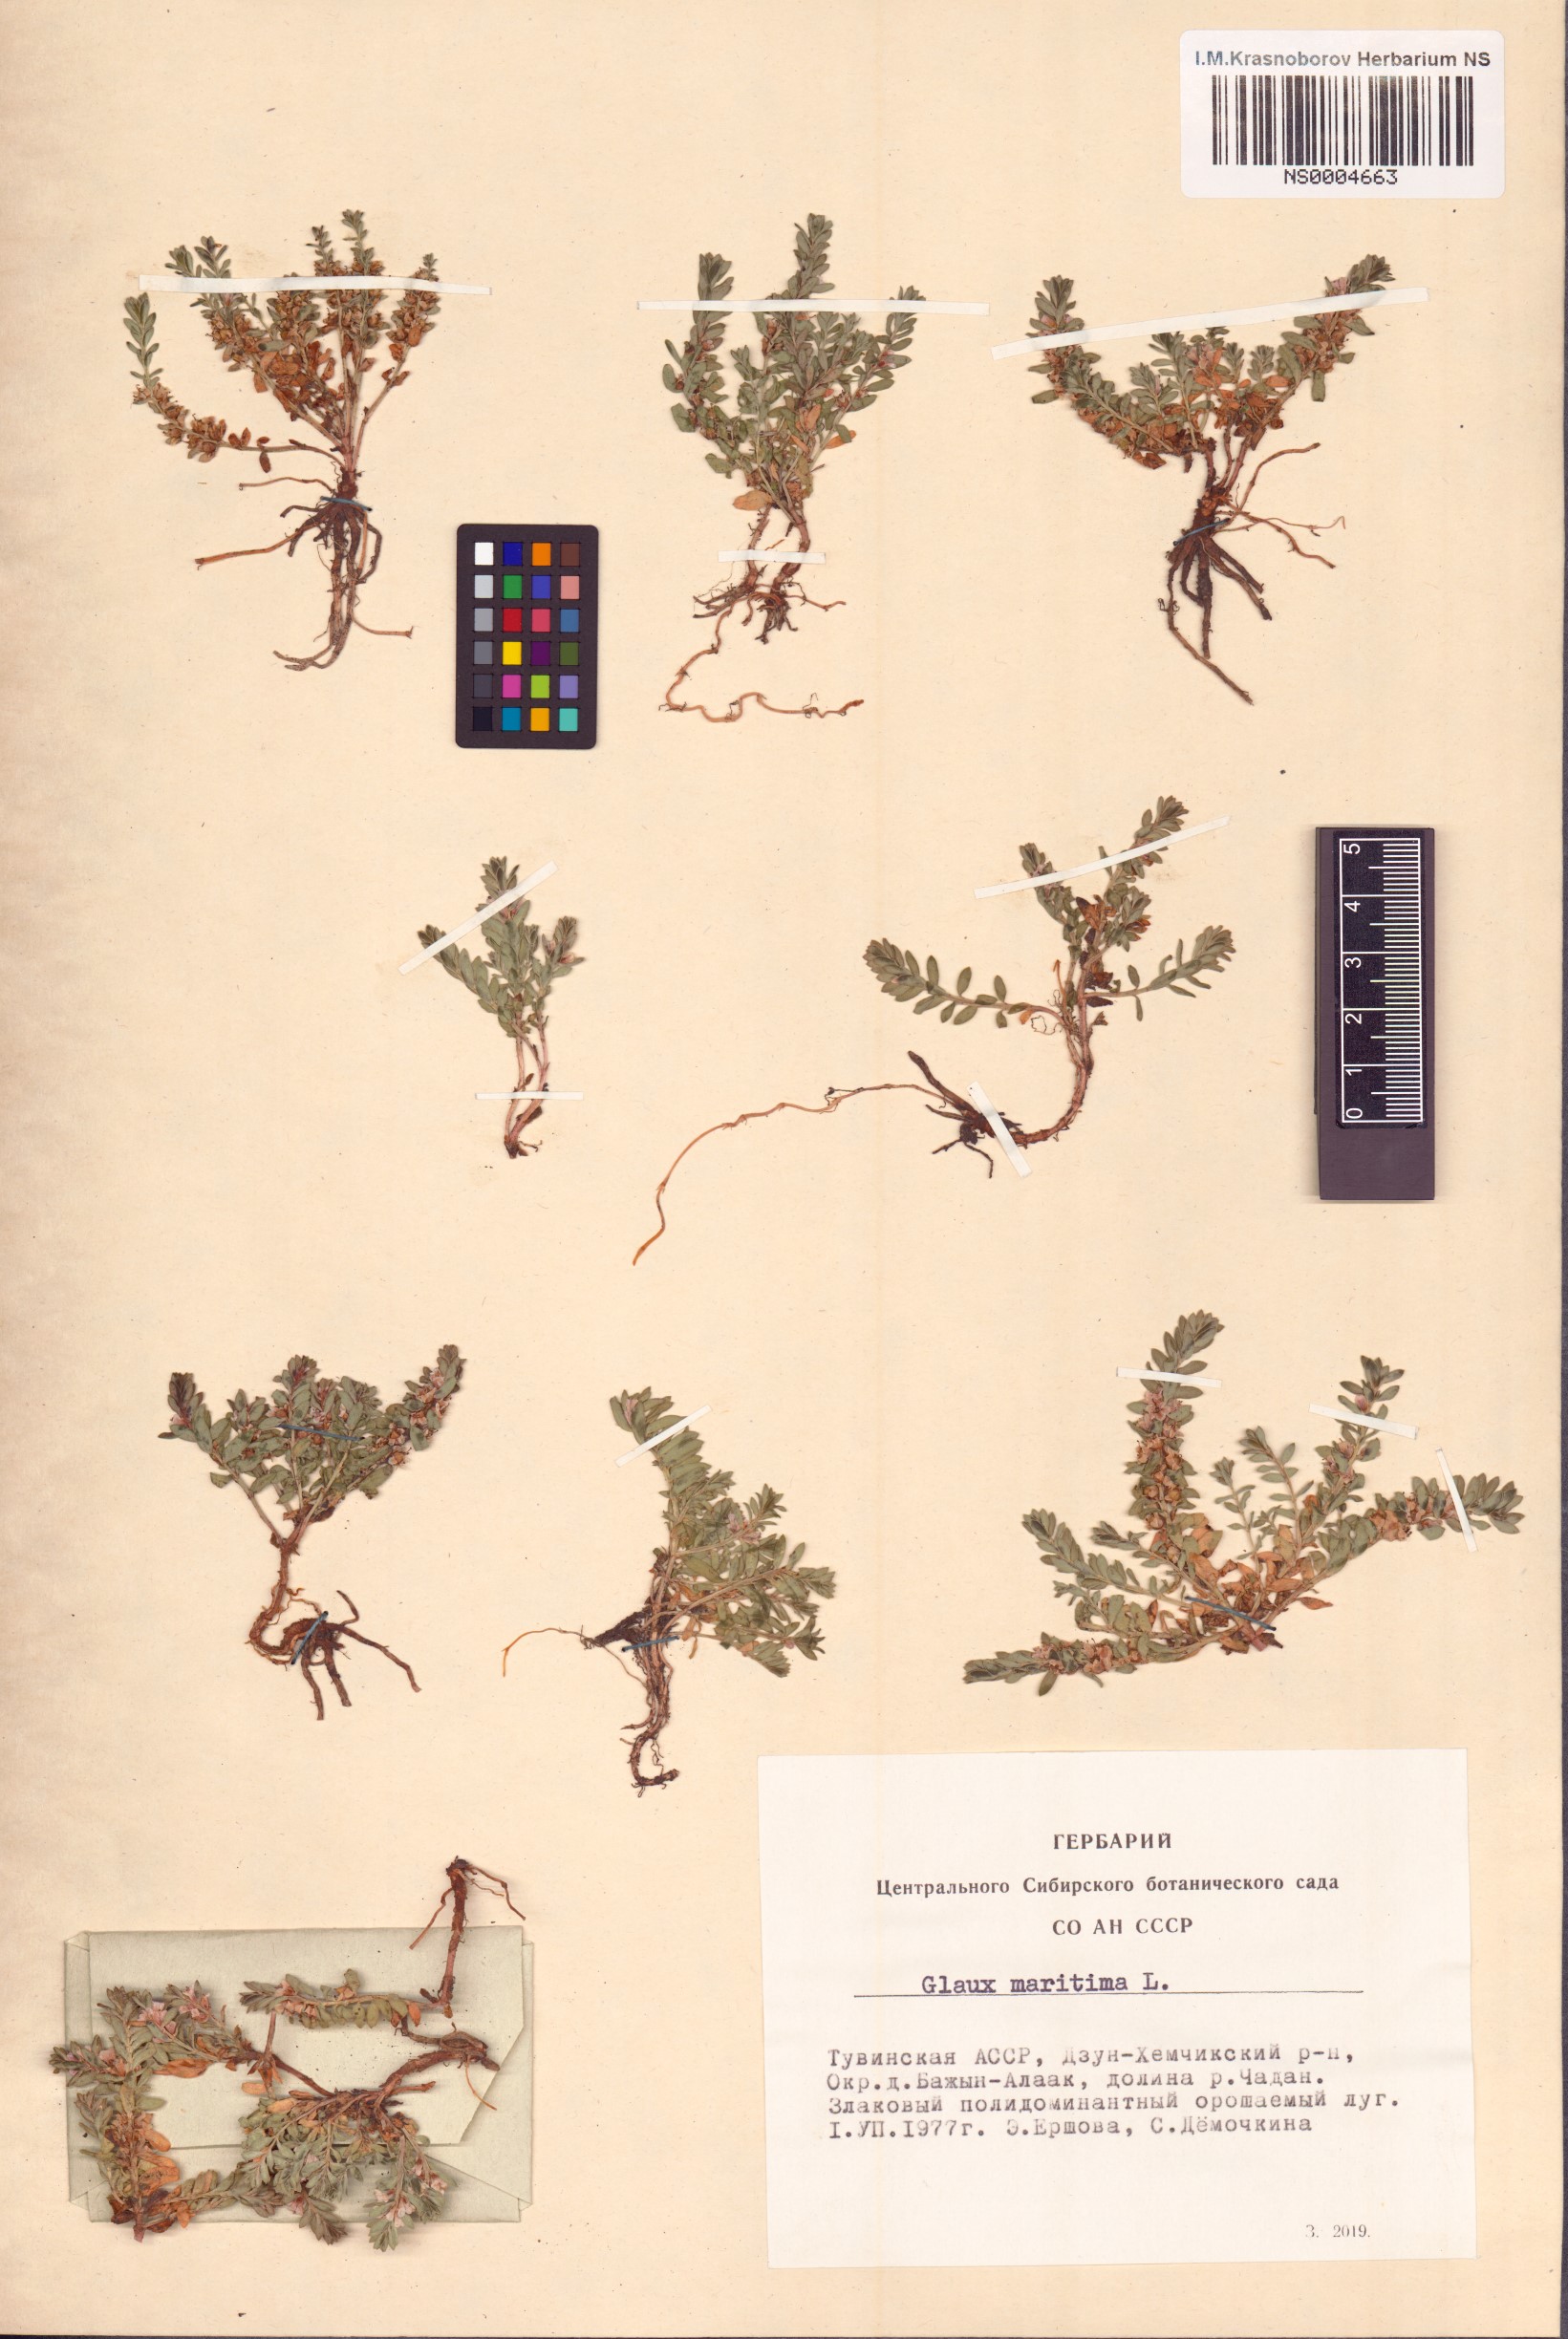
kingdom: Plantae
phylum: Tracheophyta
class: Magnoliopsida
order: Ericales
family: Primulaceae
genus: Lysimachia
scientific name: Lysimachia maritima
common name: Sea milkwort
